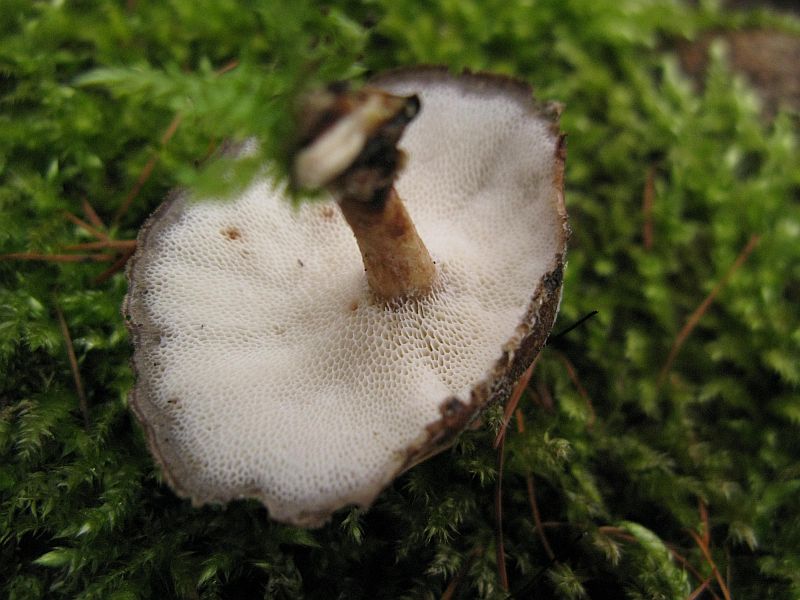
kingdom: Fungi
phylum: Basidiomycota
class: Agaricomycetes
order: Polyporales
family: Polyporaceae
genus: Lentinus
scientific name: Lentinus brumalis
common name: vinter-stilkporesvamp
